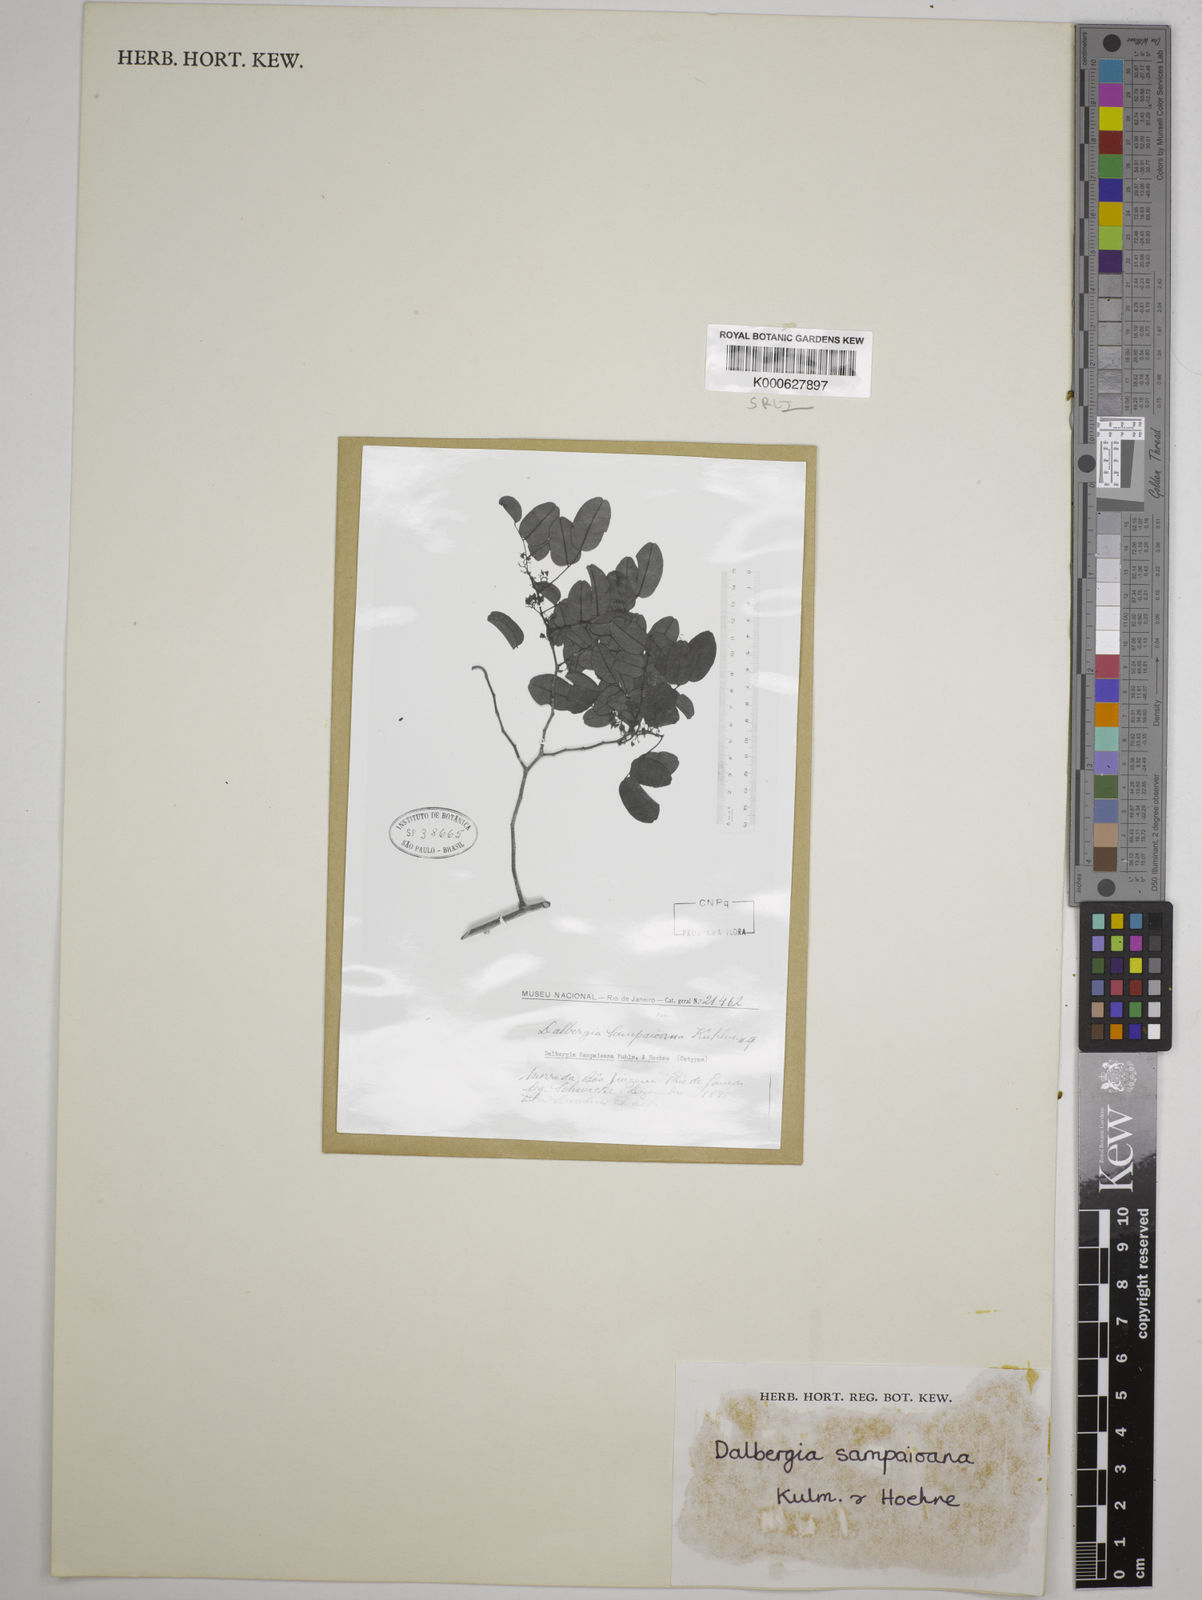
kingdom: Plantae
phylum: Tracheophyta
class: Magnoliopsida
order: Fabales
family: Fabaceae
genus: Dalbergia
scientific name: Dalbergia sampaioana
